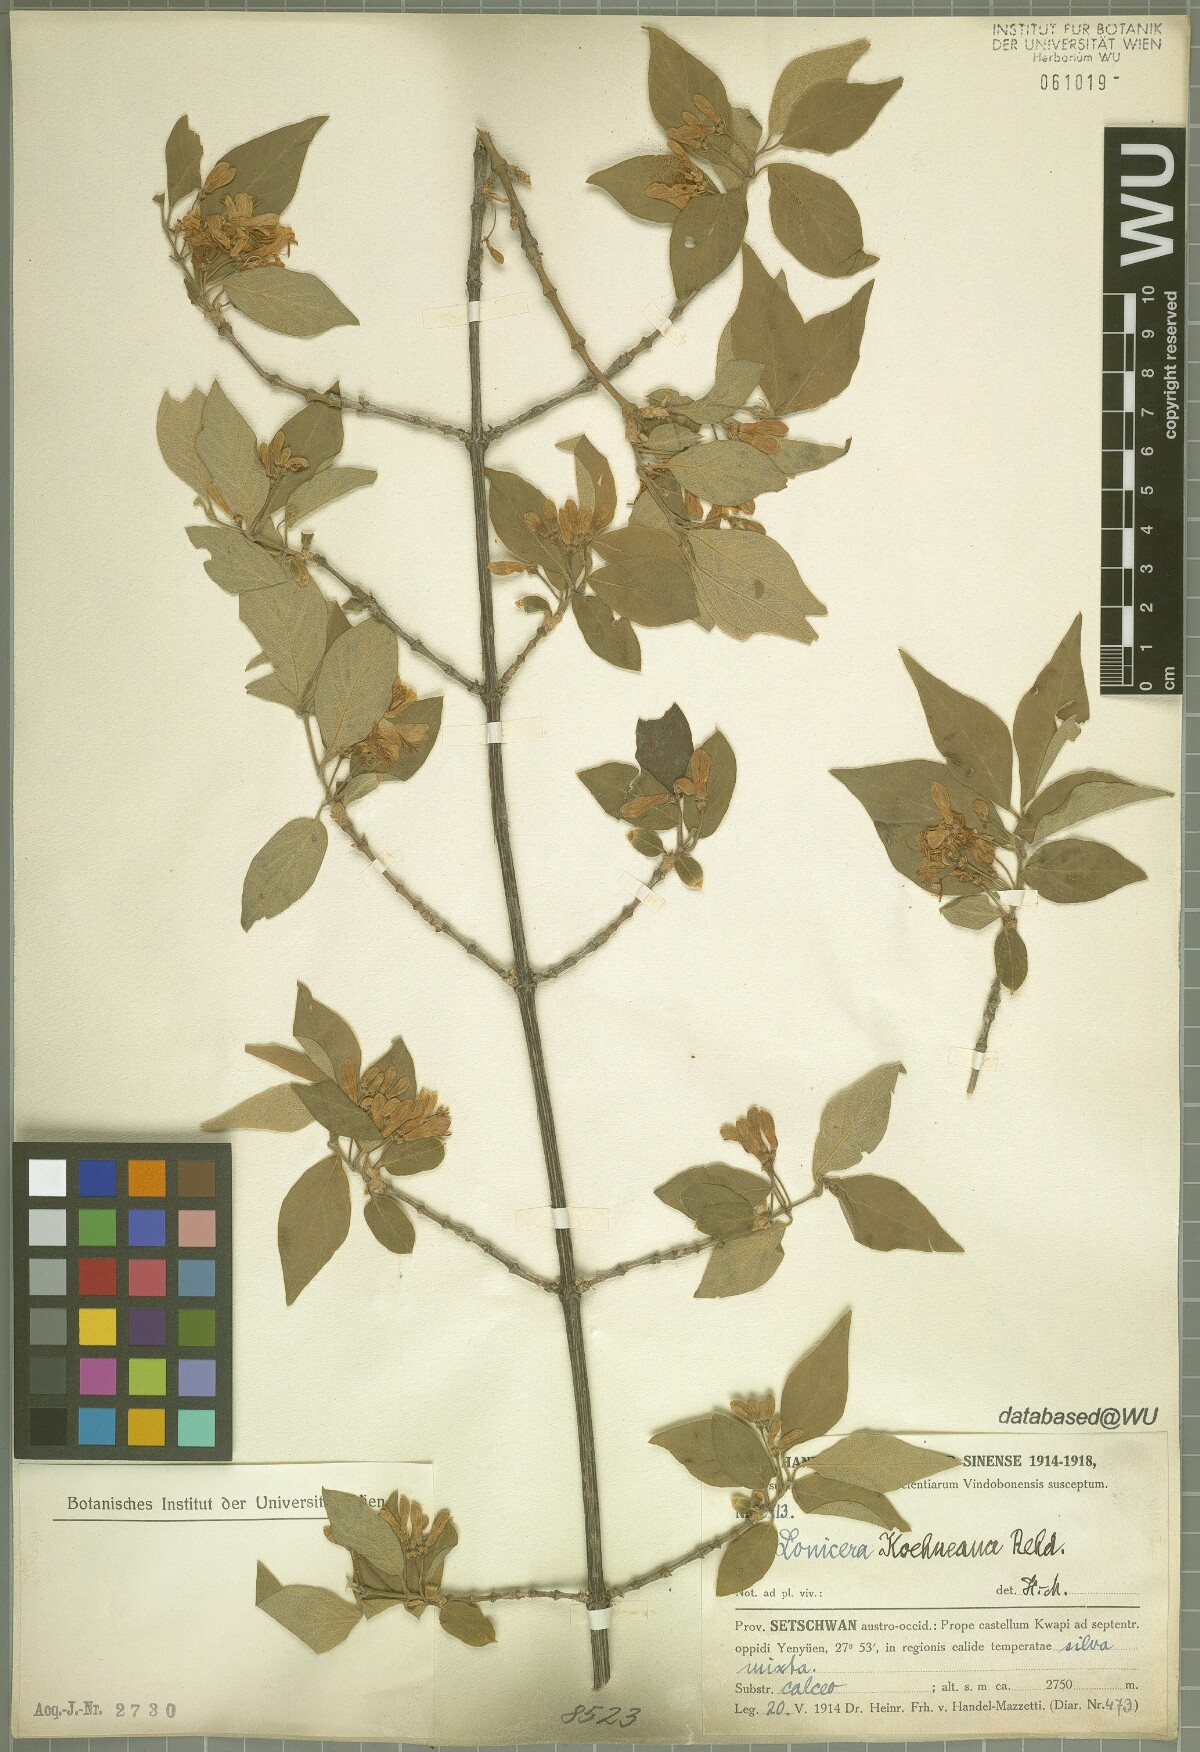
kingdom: Plantae
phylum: Tracheophyta
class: Magnoliopsida
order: Dipsacales
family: Caprifoliaceae
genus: Lonicera
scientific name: Lonicera chrysantha
